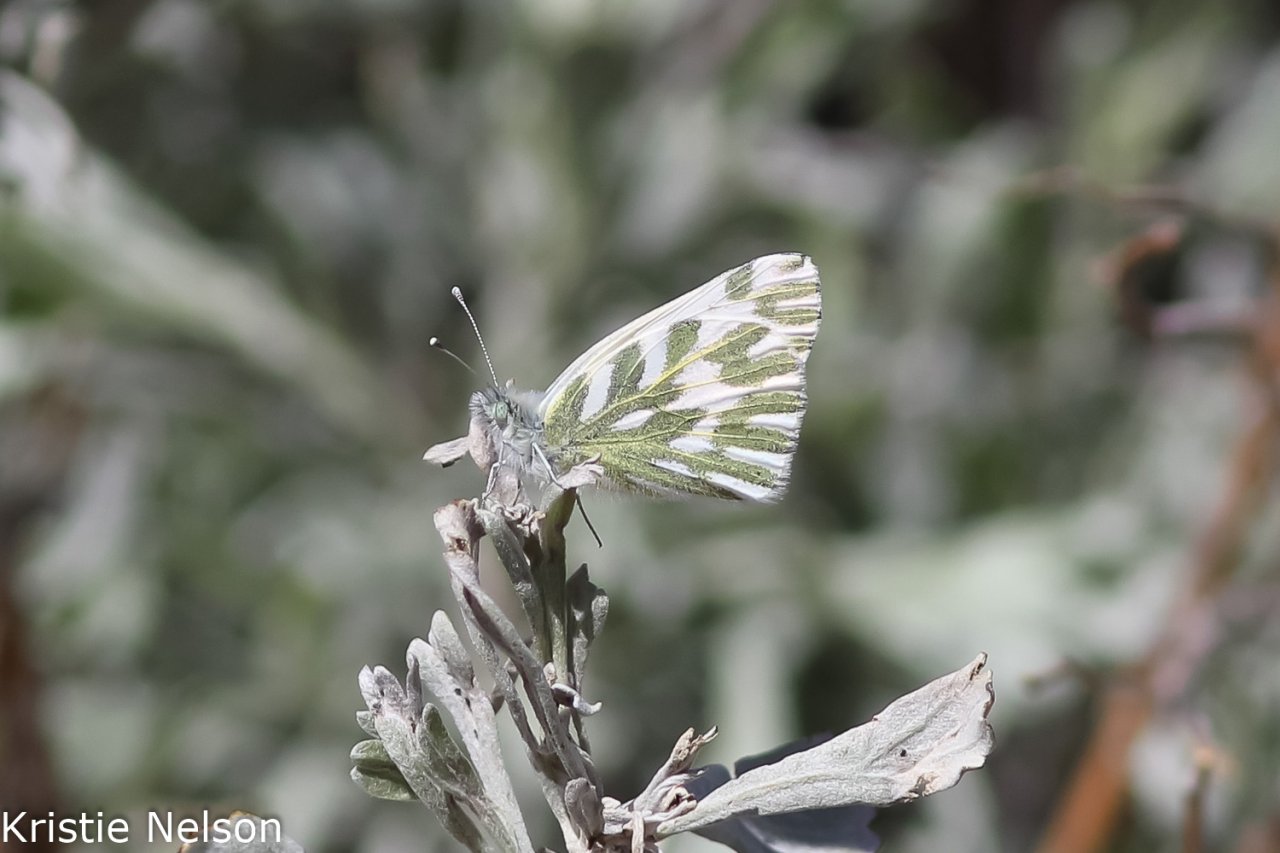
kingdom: Animalia
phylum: Arthropoda
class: Insecta
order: Lepidoptera
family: Pieridae
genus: Pontia
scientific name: Pontia beckerii
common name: Becker's White
